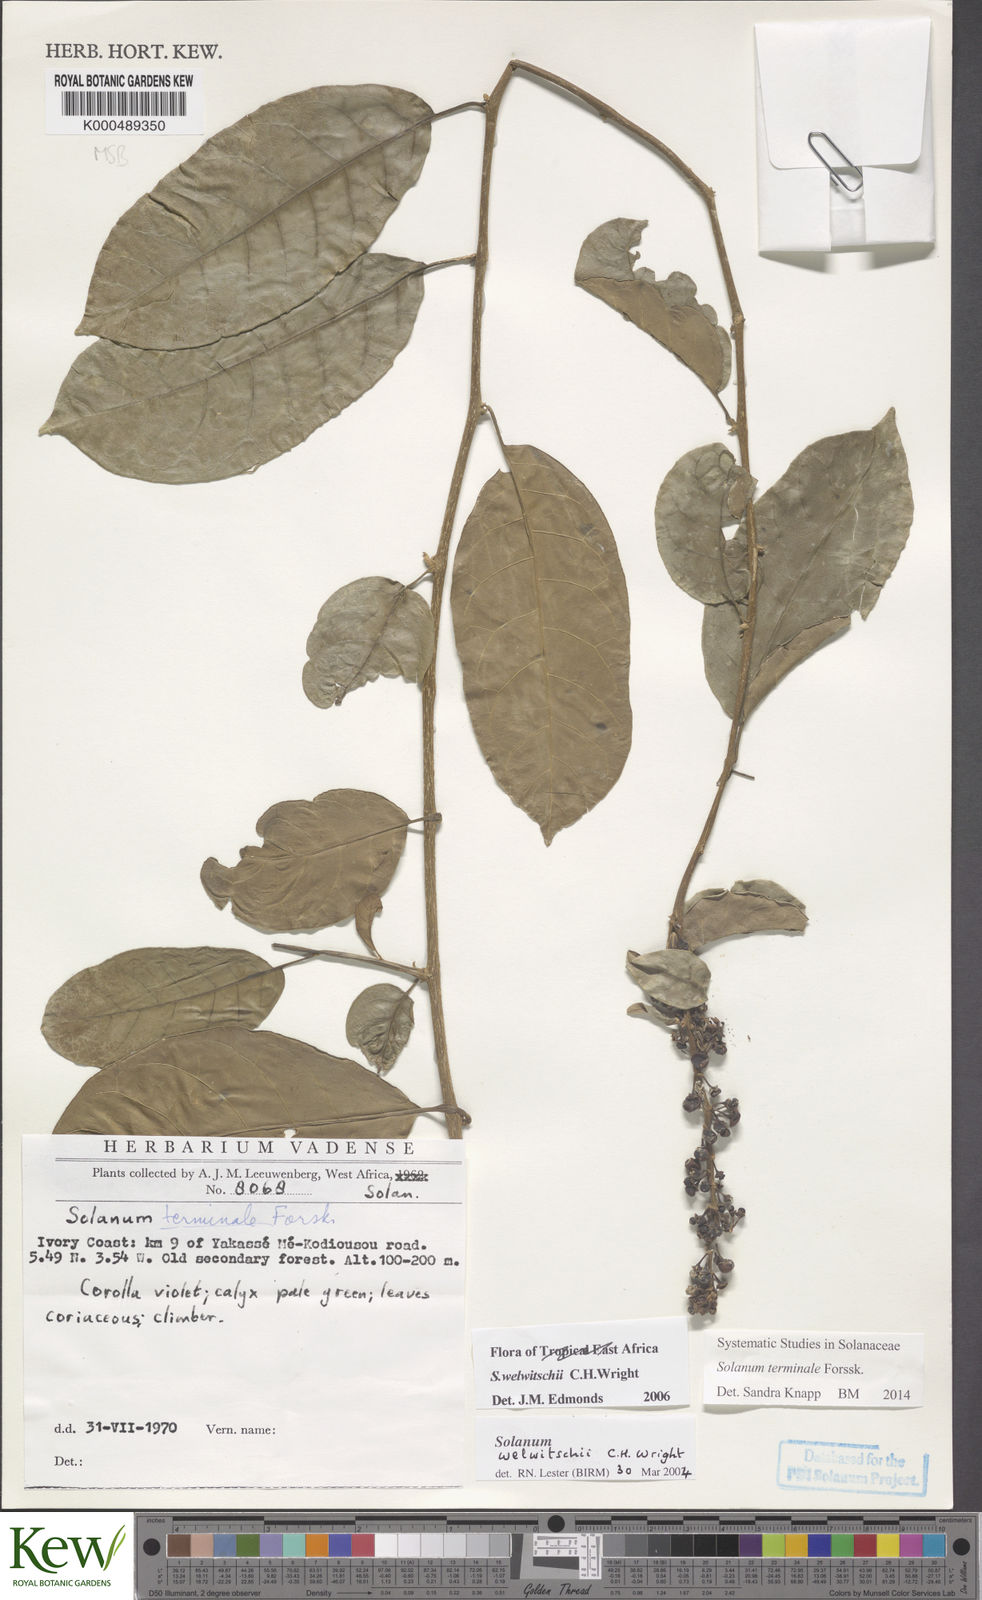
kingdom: Plantae
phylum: Tracheophyta
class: Magnoliopsida
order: Solanales
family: Solanaceae
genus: Solanum
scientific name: Solanum terminale
